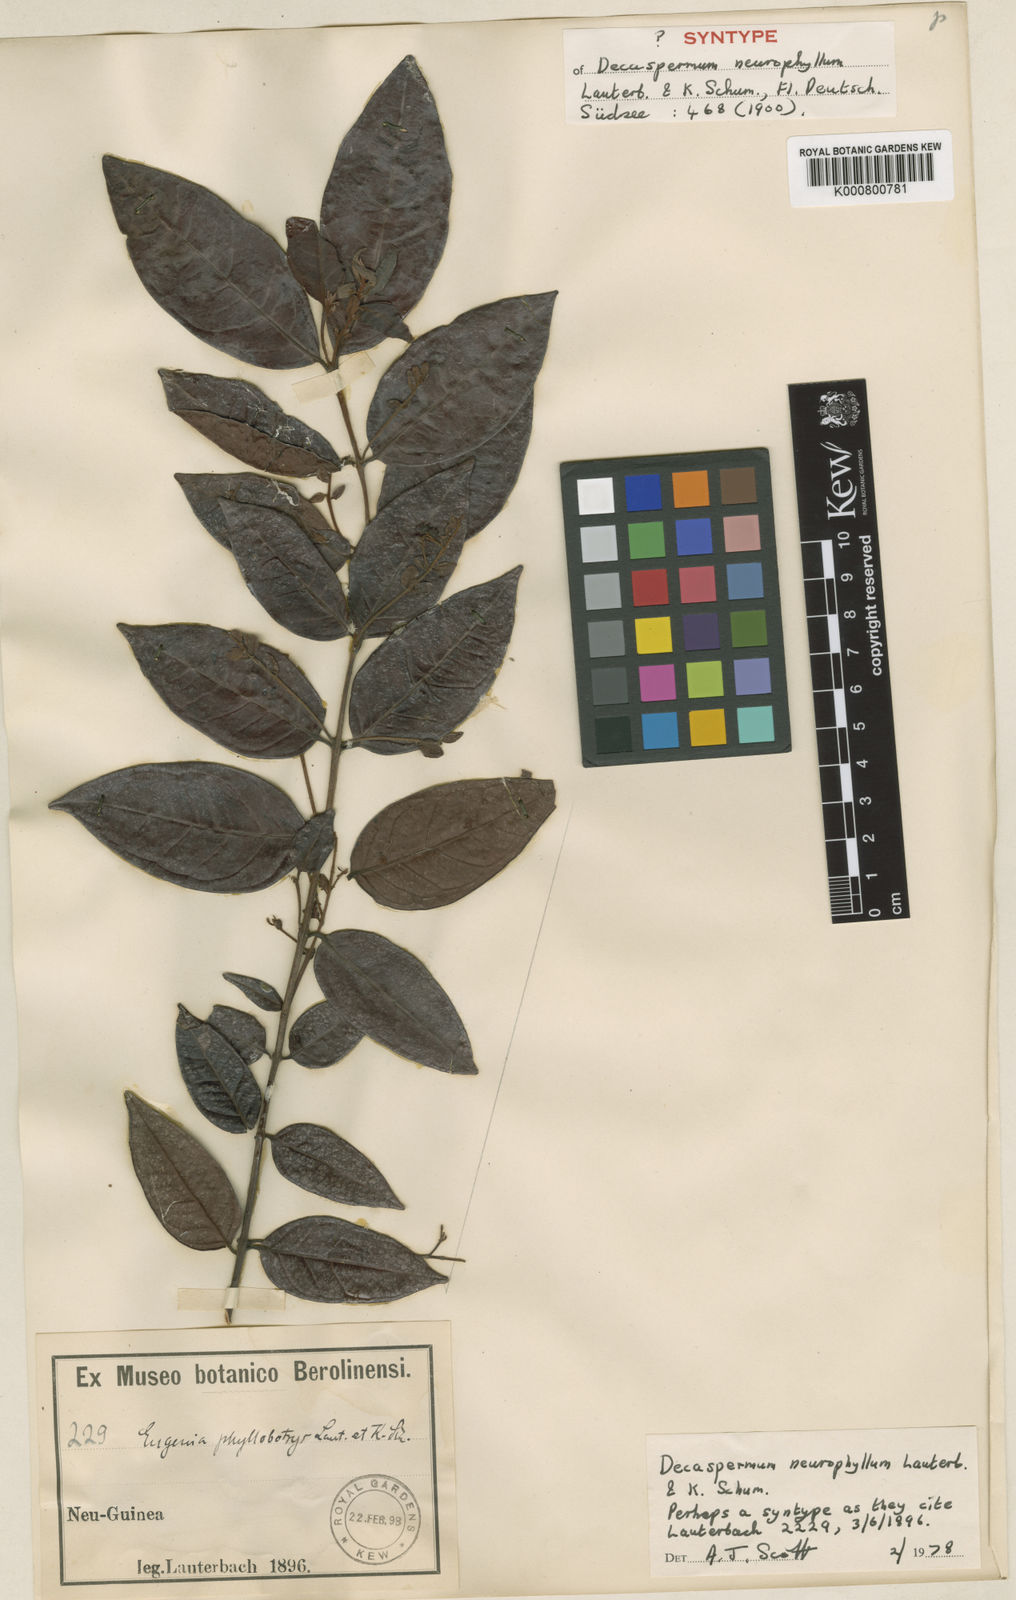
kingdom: Plantae
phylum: Tracheophyta
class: Magnoliopsida
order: Myrtales
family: Myrtaceae
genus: Decaspermum
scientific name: Decaspermum neurophyllum
